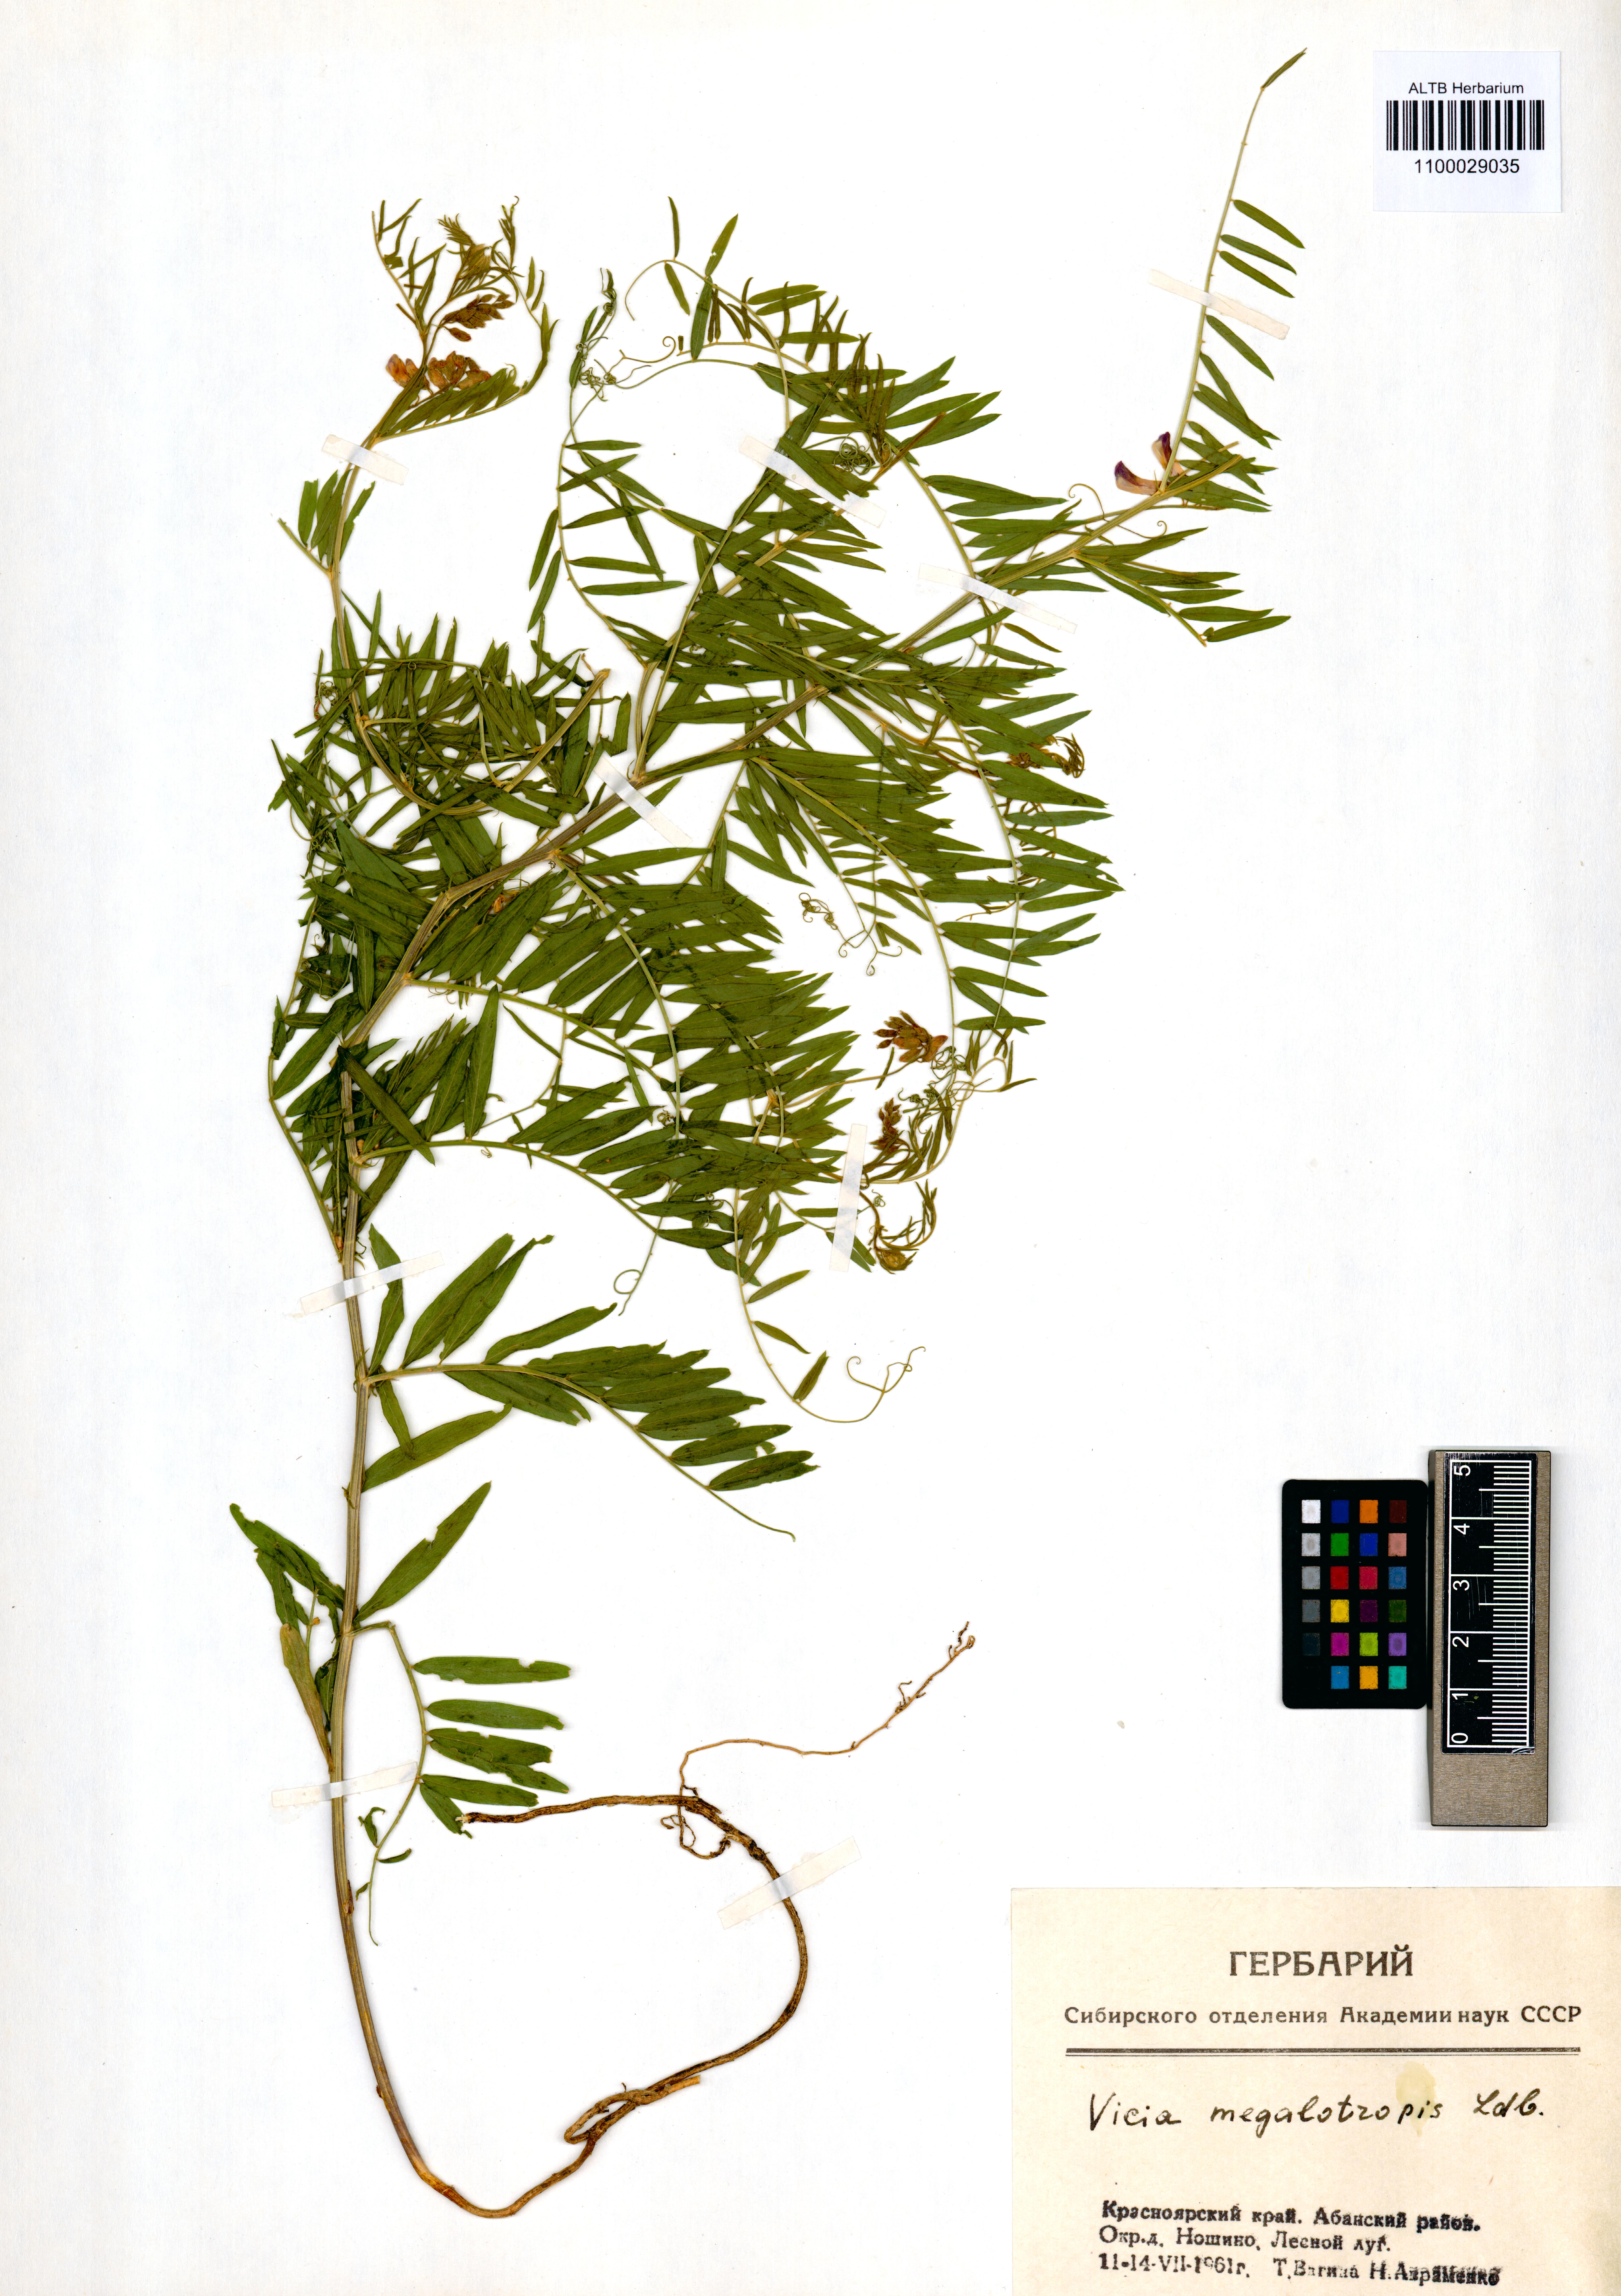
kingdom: Plantae
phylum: Tracheophyta
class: Magnoliopsida
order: Fabales
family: Fabaceae
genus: Vicia
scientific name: Vicia megalotropis
